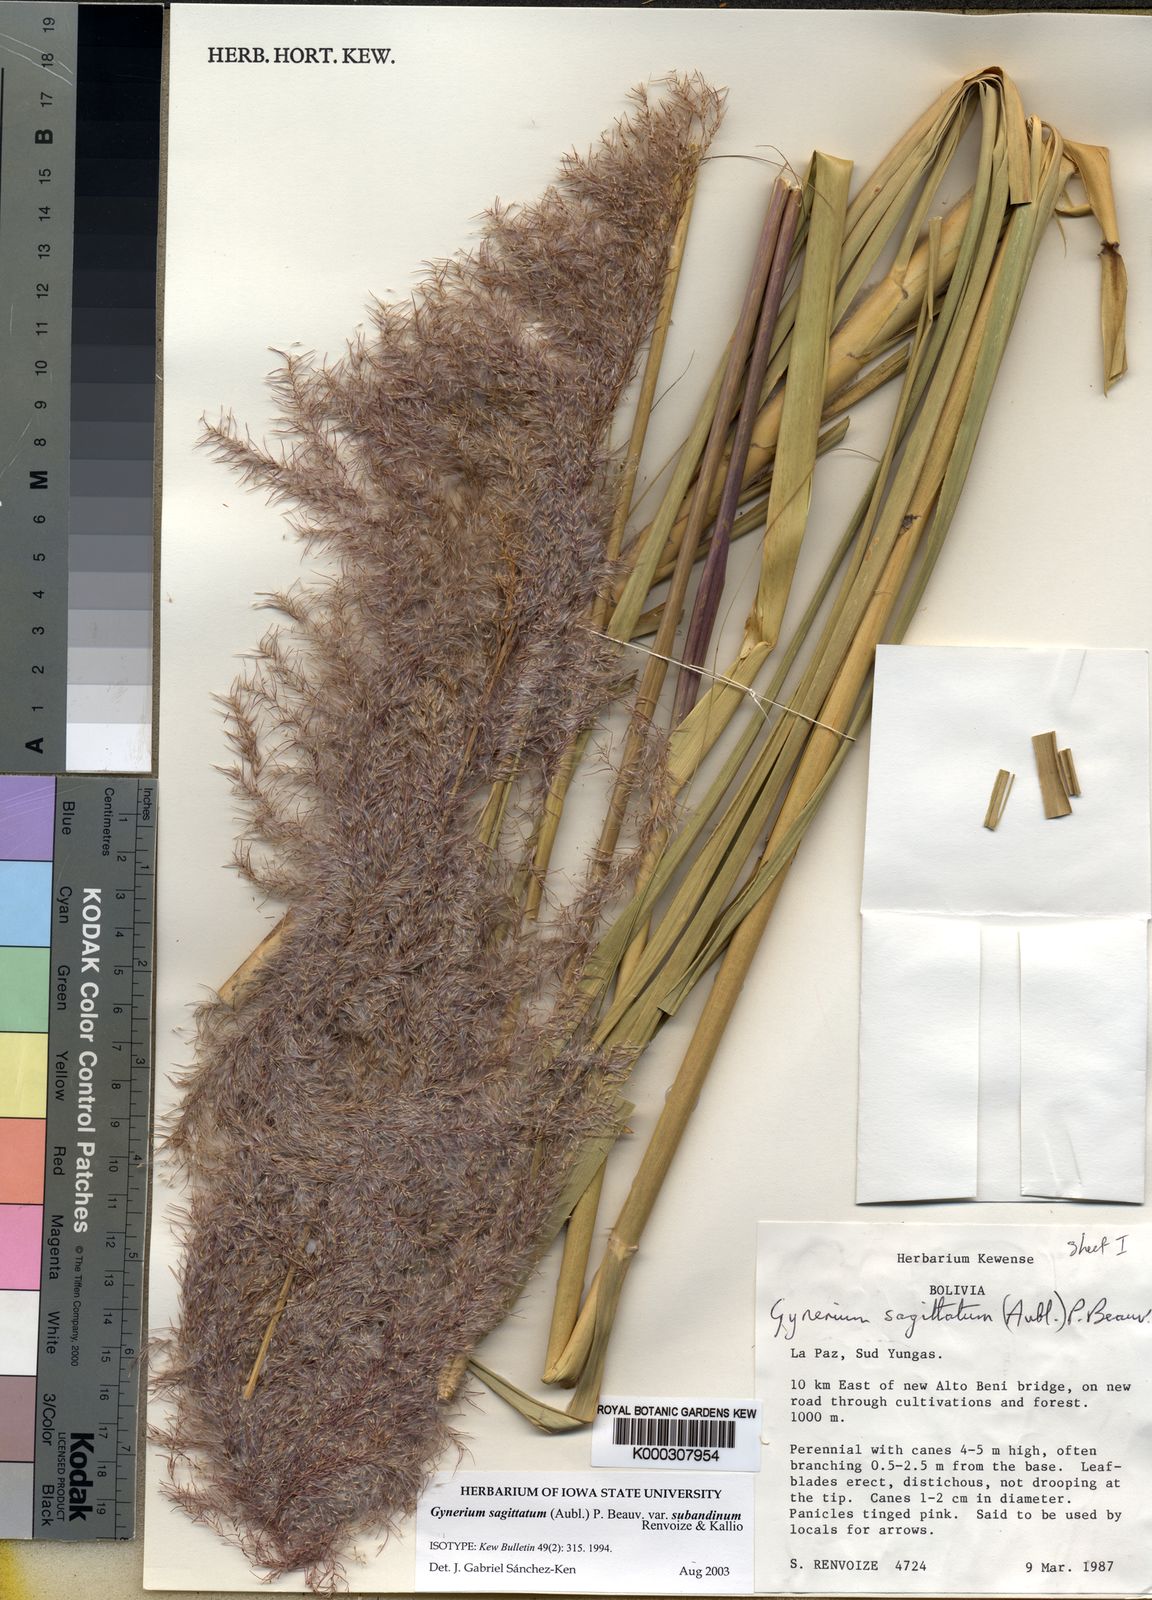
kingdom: Plantae
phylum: Tracheophyta
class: Liliopsida
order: Poales
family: Poaceae
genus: Gynerium
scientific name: Gynerium sagittatum
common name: Wild cane
